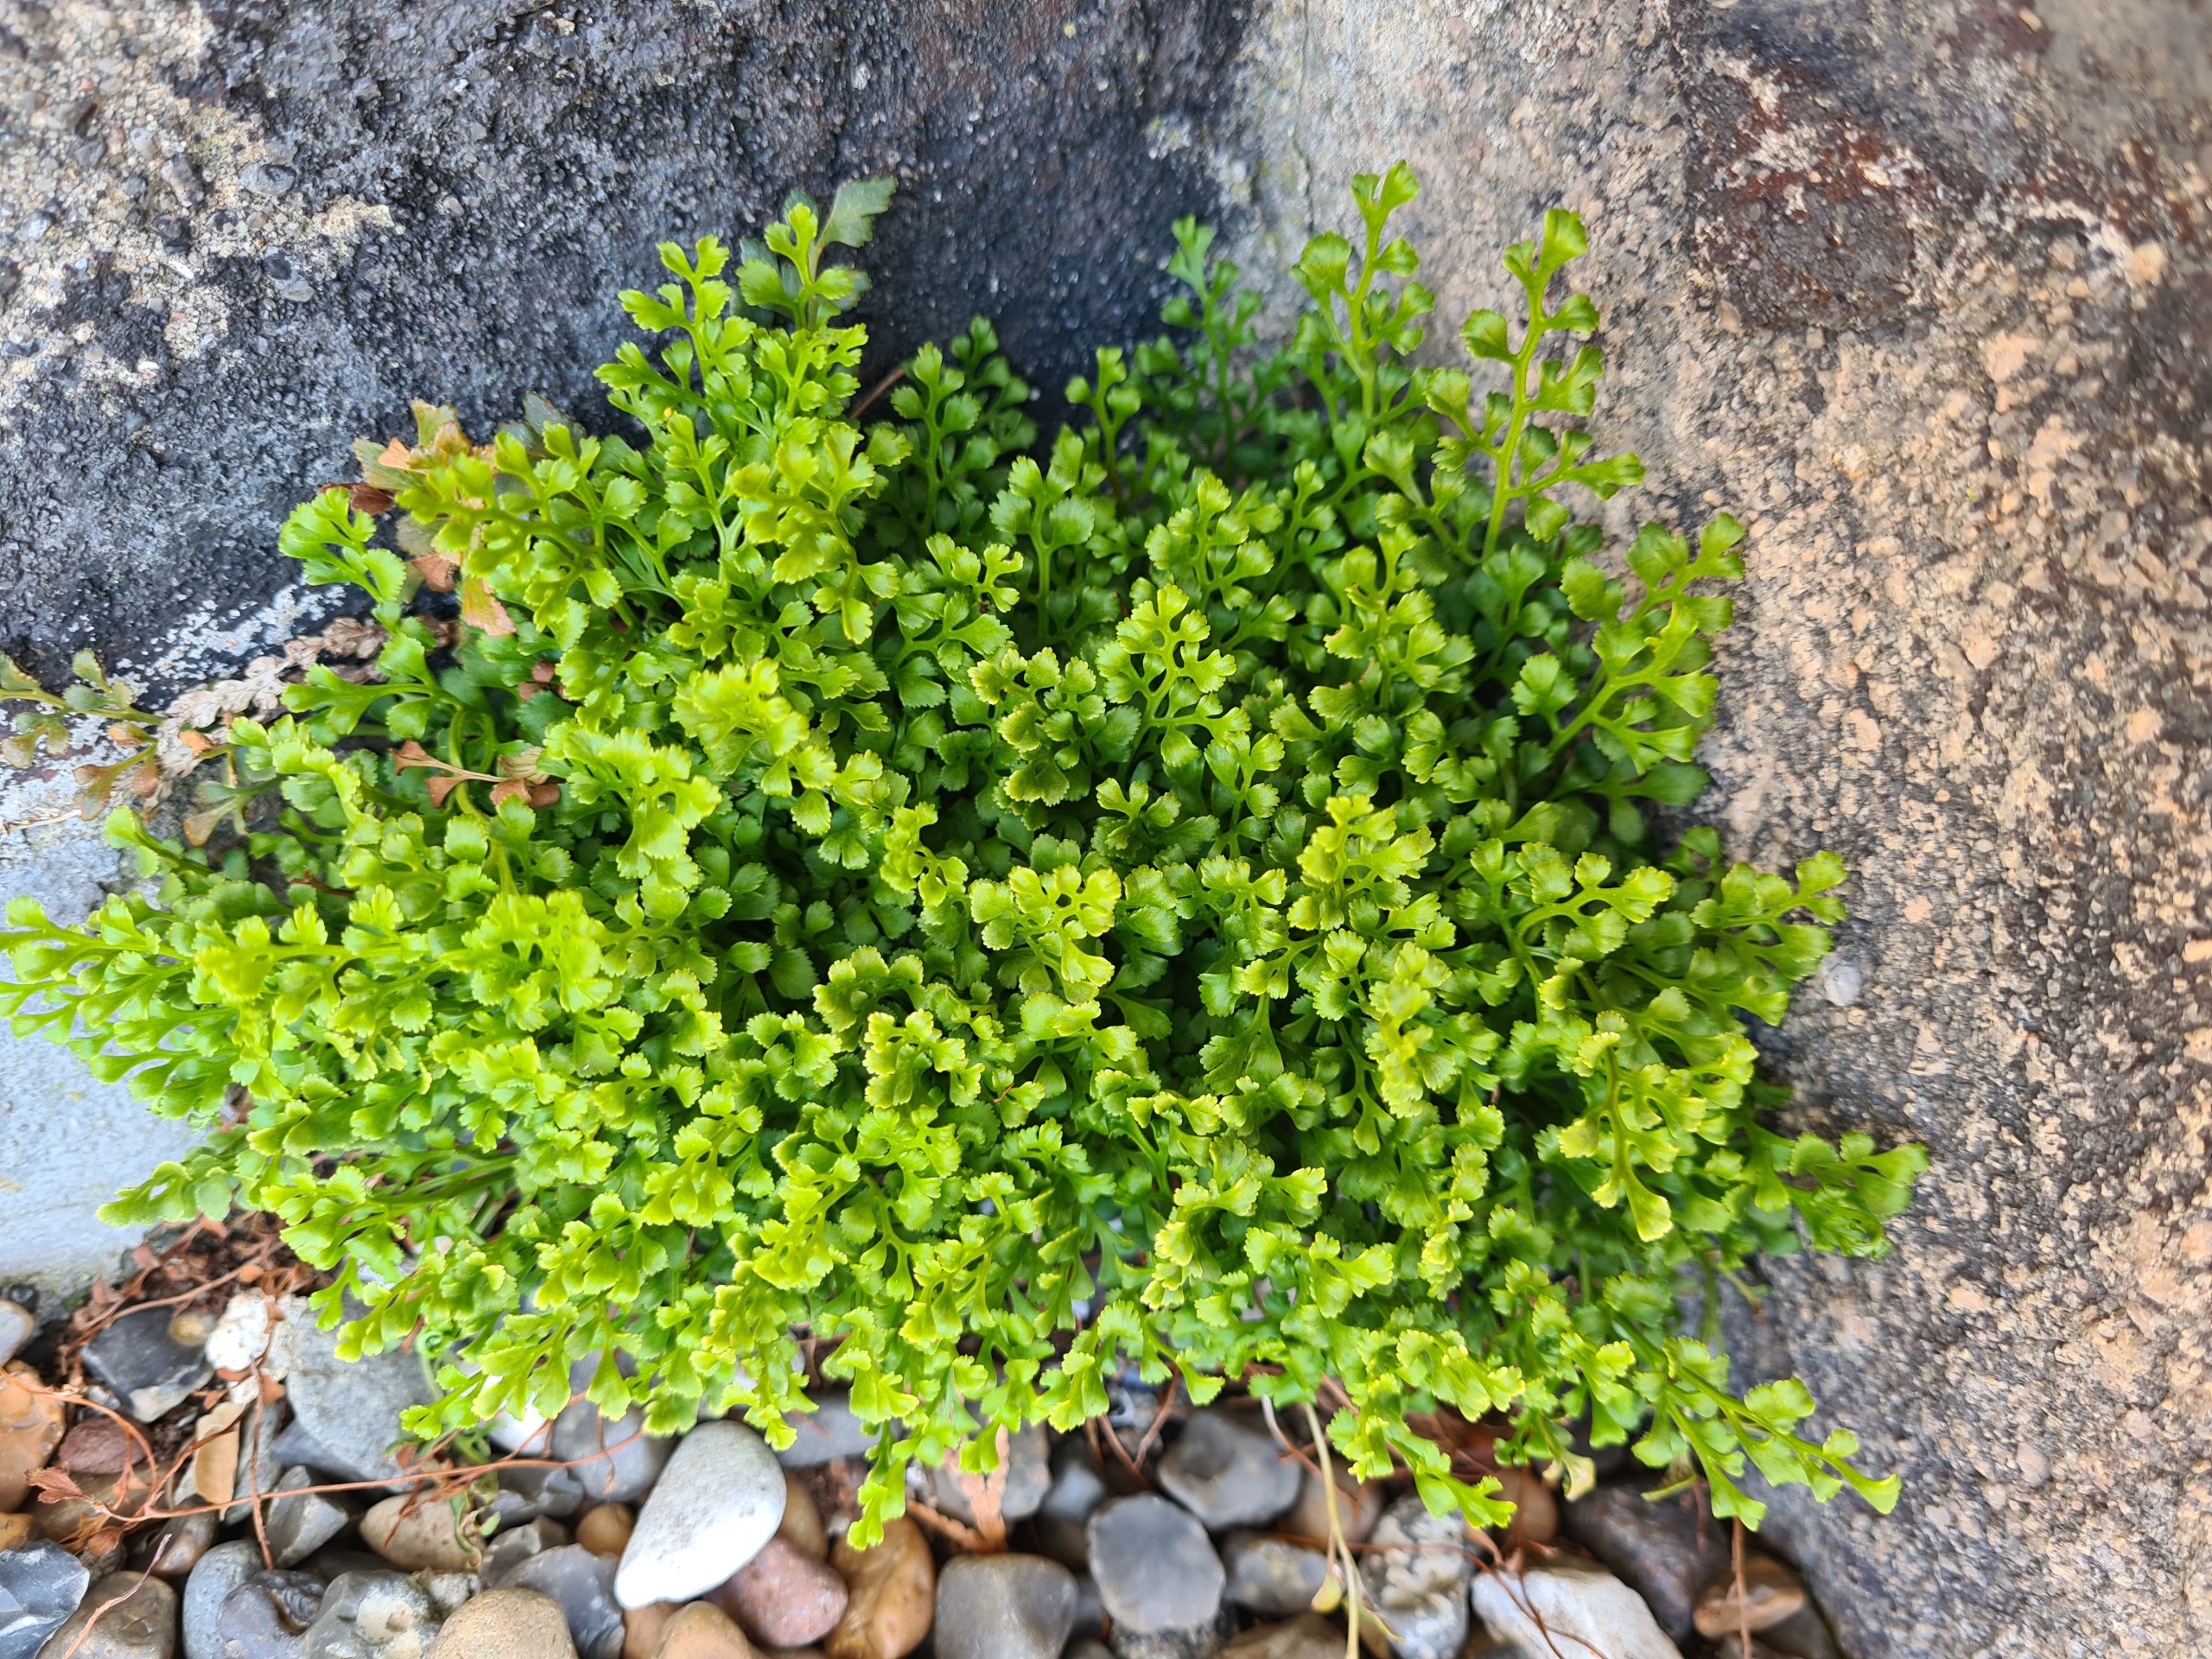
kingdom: Plantae
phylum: Tracheophyta
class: Polypodiopsida
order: Polypodiales
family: Aspleniaceae
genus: Asplenium
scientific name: Asplenium ruta-muraria
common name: Murrude
